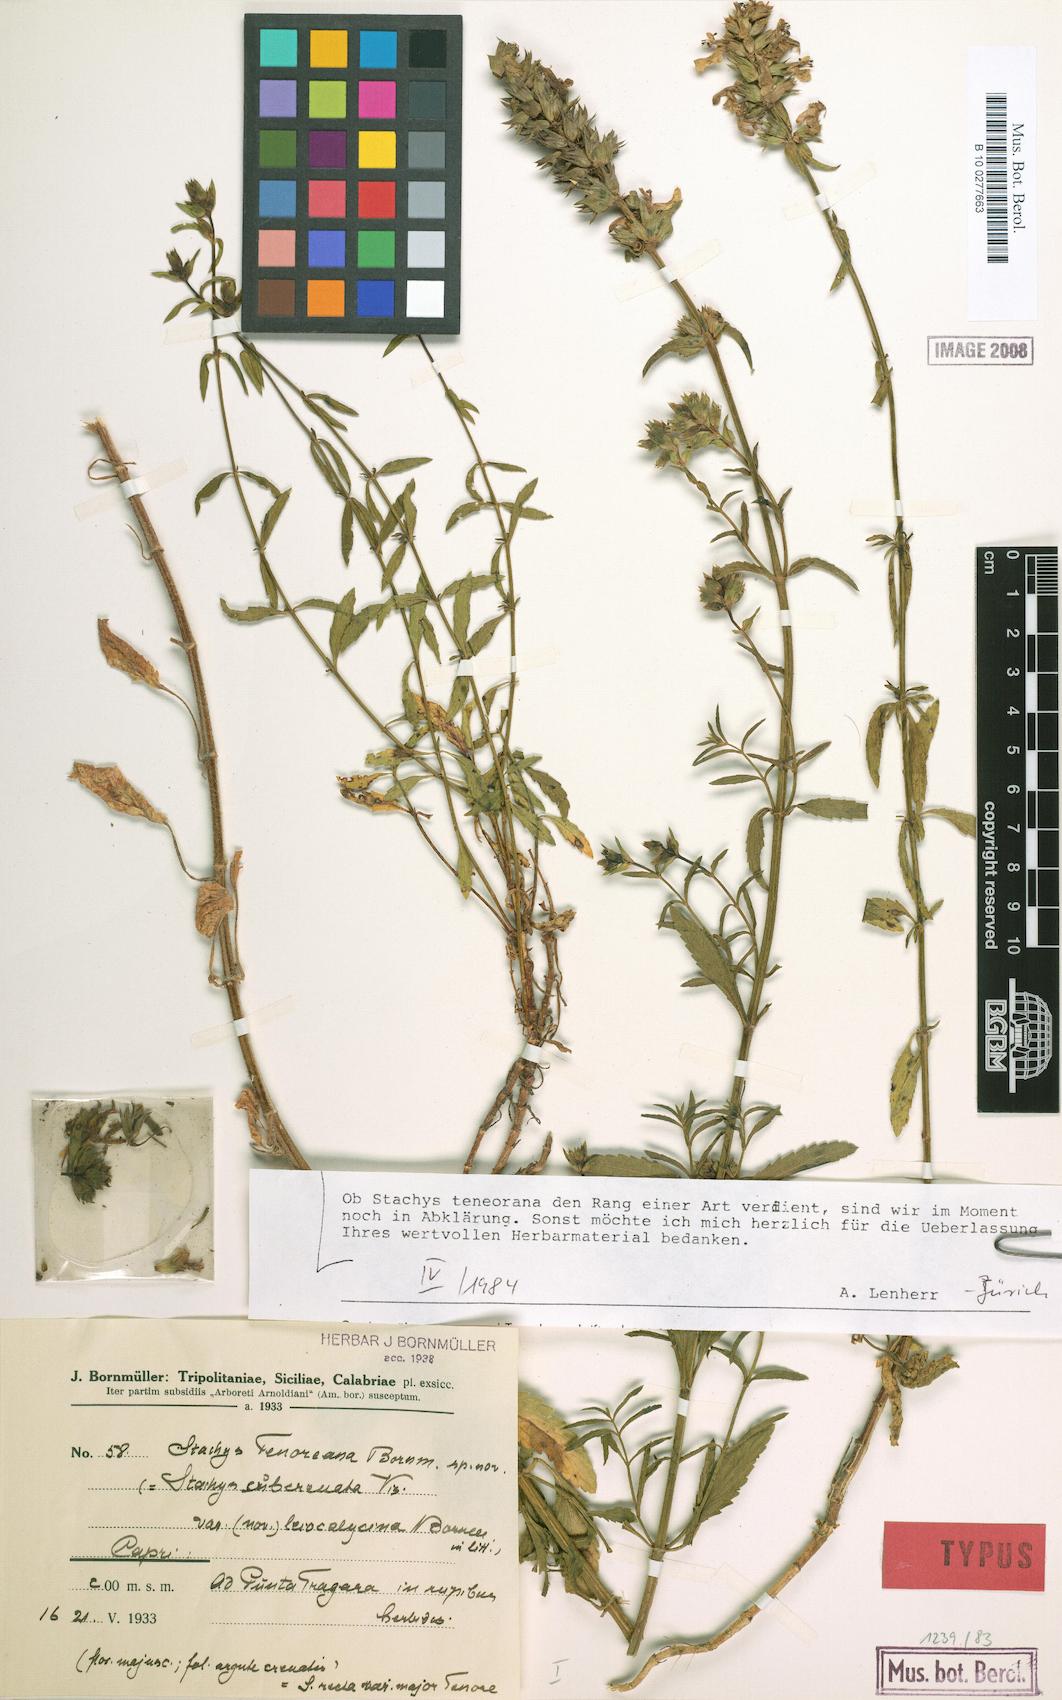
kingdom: Plantae
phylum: Tracheophyta
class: Magnoliopsida
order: Lamiales
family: Lamiaceae
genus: Stachys
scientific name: Stachys recta
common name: Perennial yellow-woundwort
